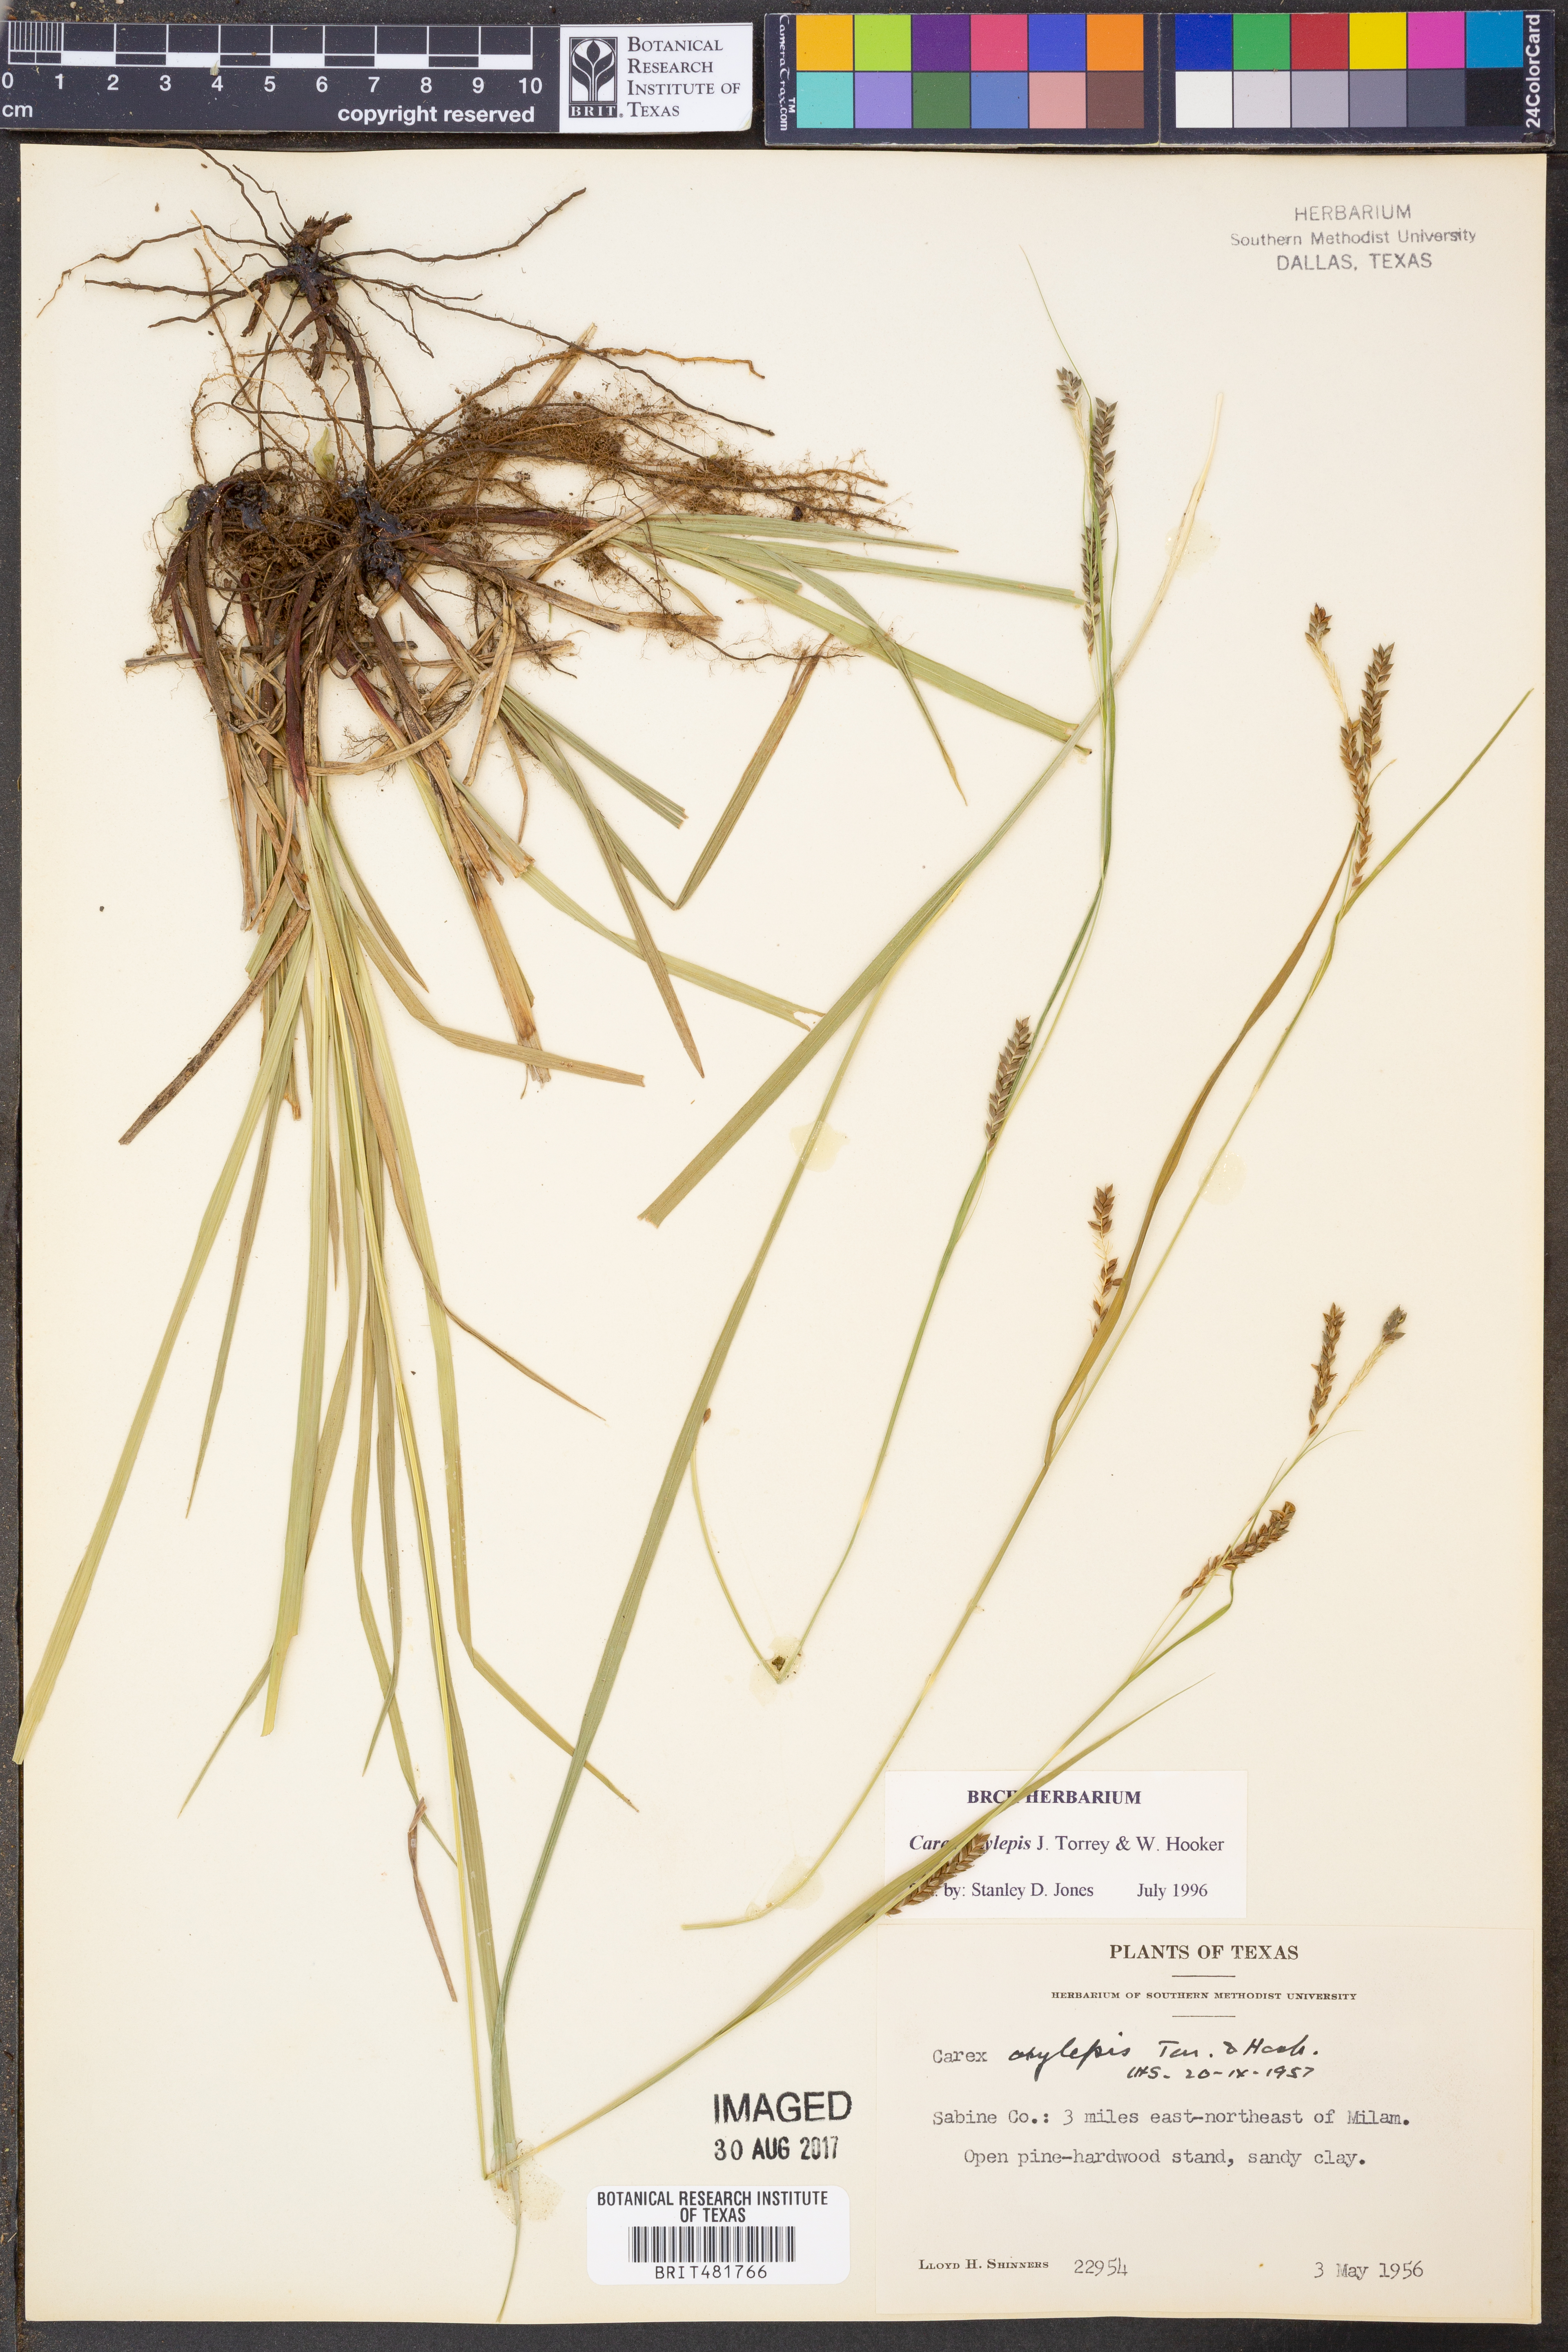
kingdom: Plantae
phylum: Tracheophyta
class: Liliopsida
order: Poales
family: Cyperaceae
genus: Carex
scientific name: Carex oxylepis
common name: Sharpscale sedge
